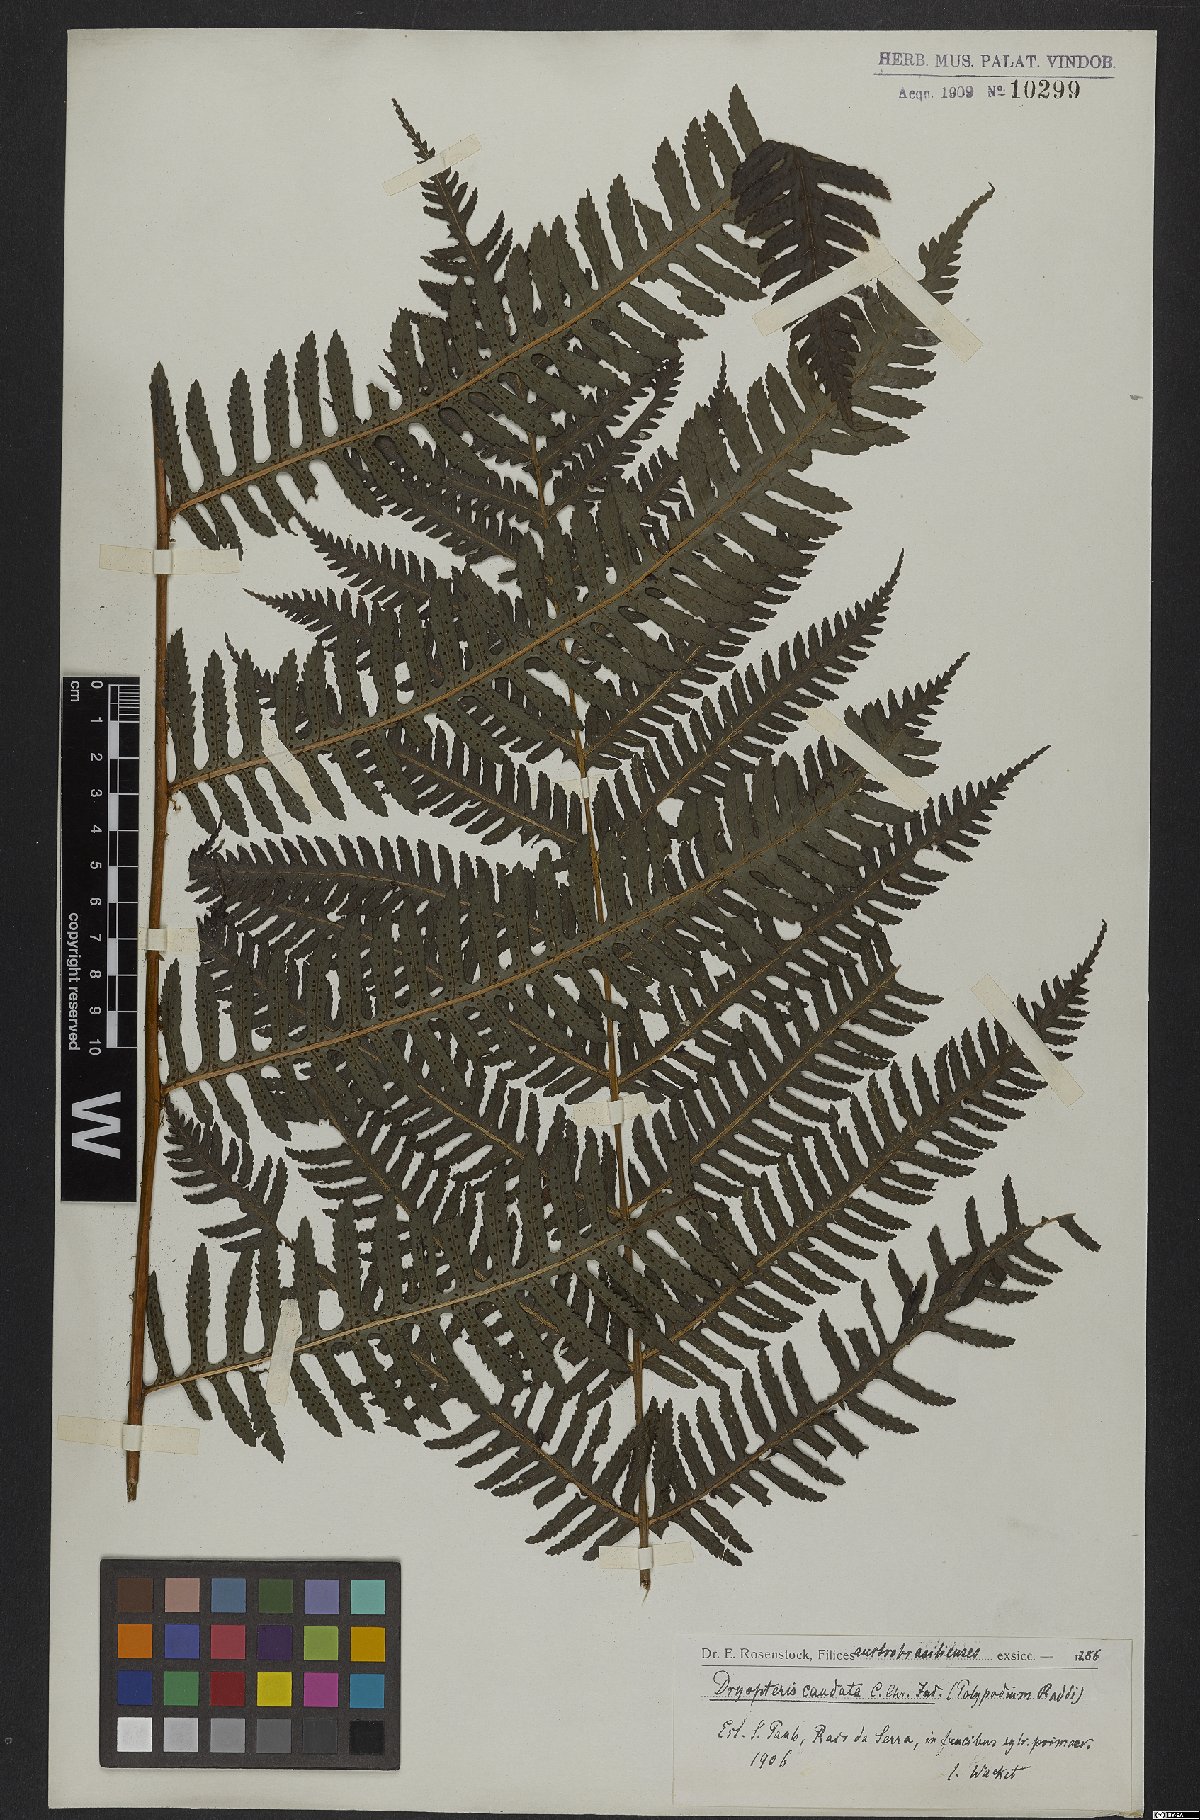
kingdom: Plantae
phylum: Tracheophyta
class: Polypodiopsida
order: Polypodiales
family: Dryopteridaceae
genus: Stigmatopteris
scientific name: Stigmatopteris caudata
